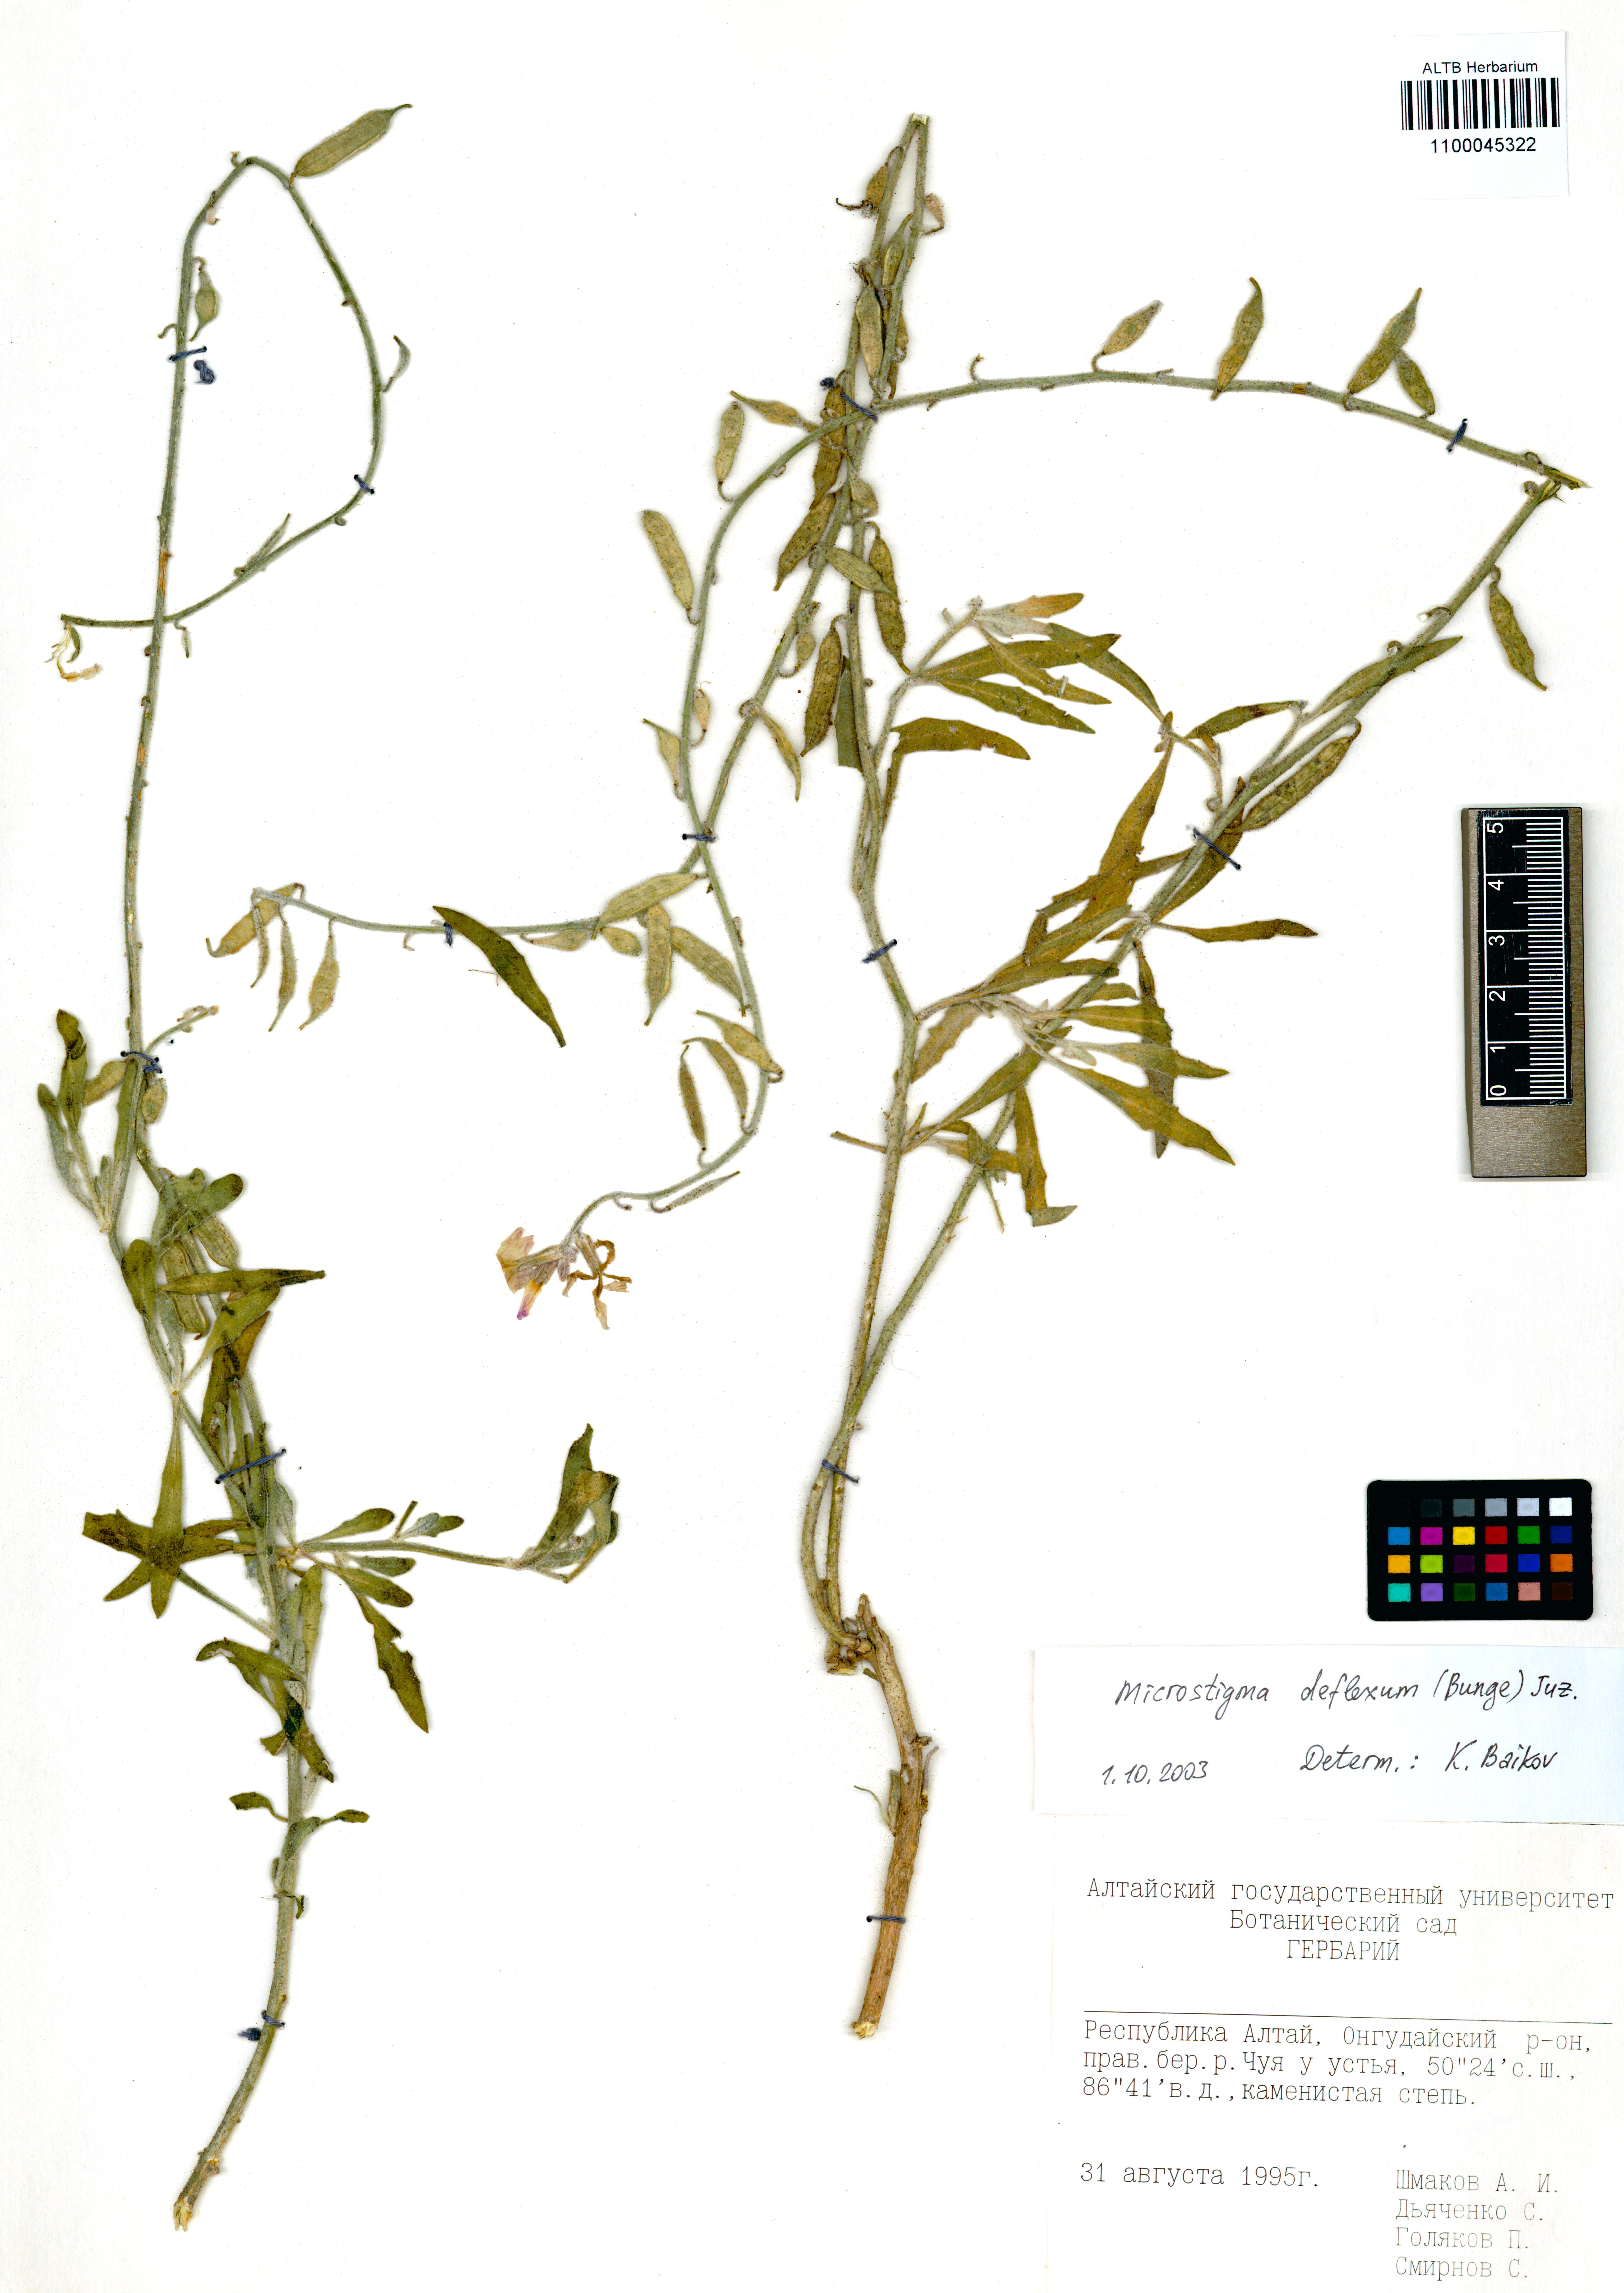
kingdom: Plantae
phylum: Tracheophyta
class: Magnoliopsida
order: Brassicales
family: Brassicaceae
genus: Microstigma
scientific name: Microstigma deflexum
